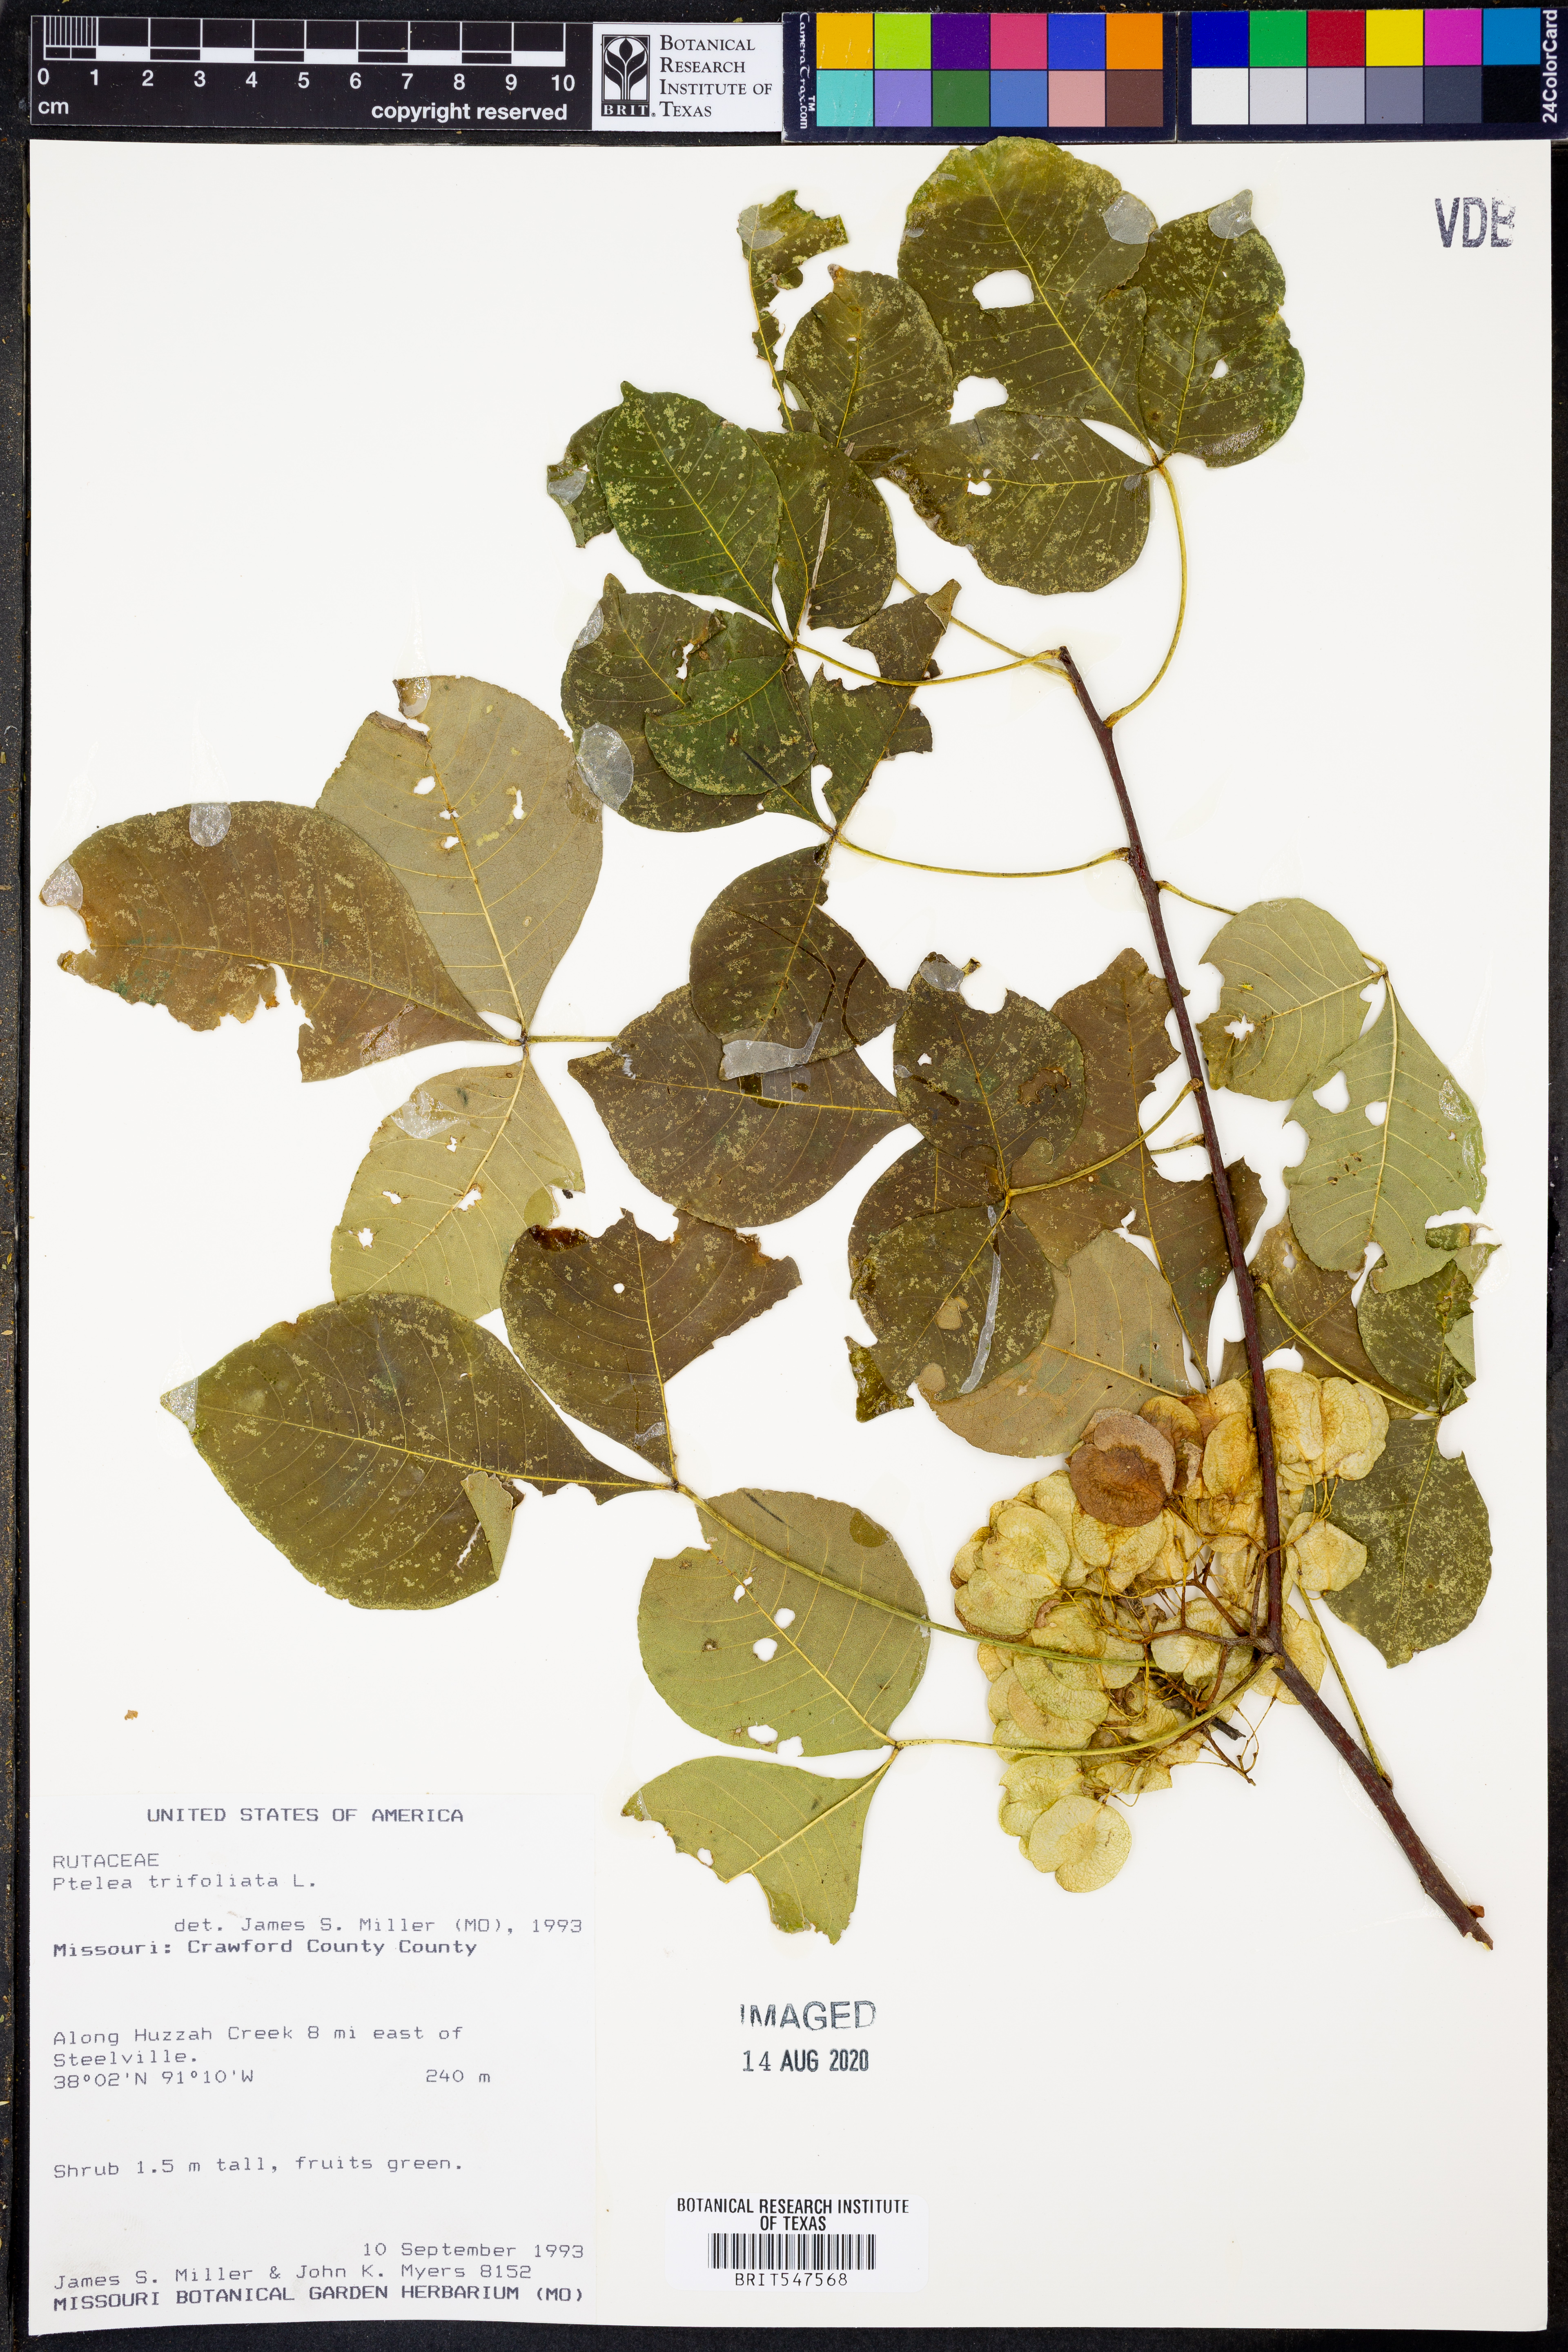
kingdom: Plantae
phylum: Tracheophyta
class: Magnoliopsida
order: Sapindales
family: Rutaceae
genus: Ptelea
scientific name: Ptelea trifoliata
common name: Common hop-tree
